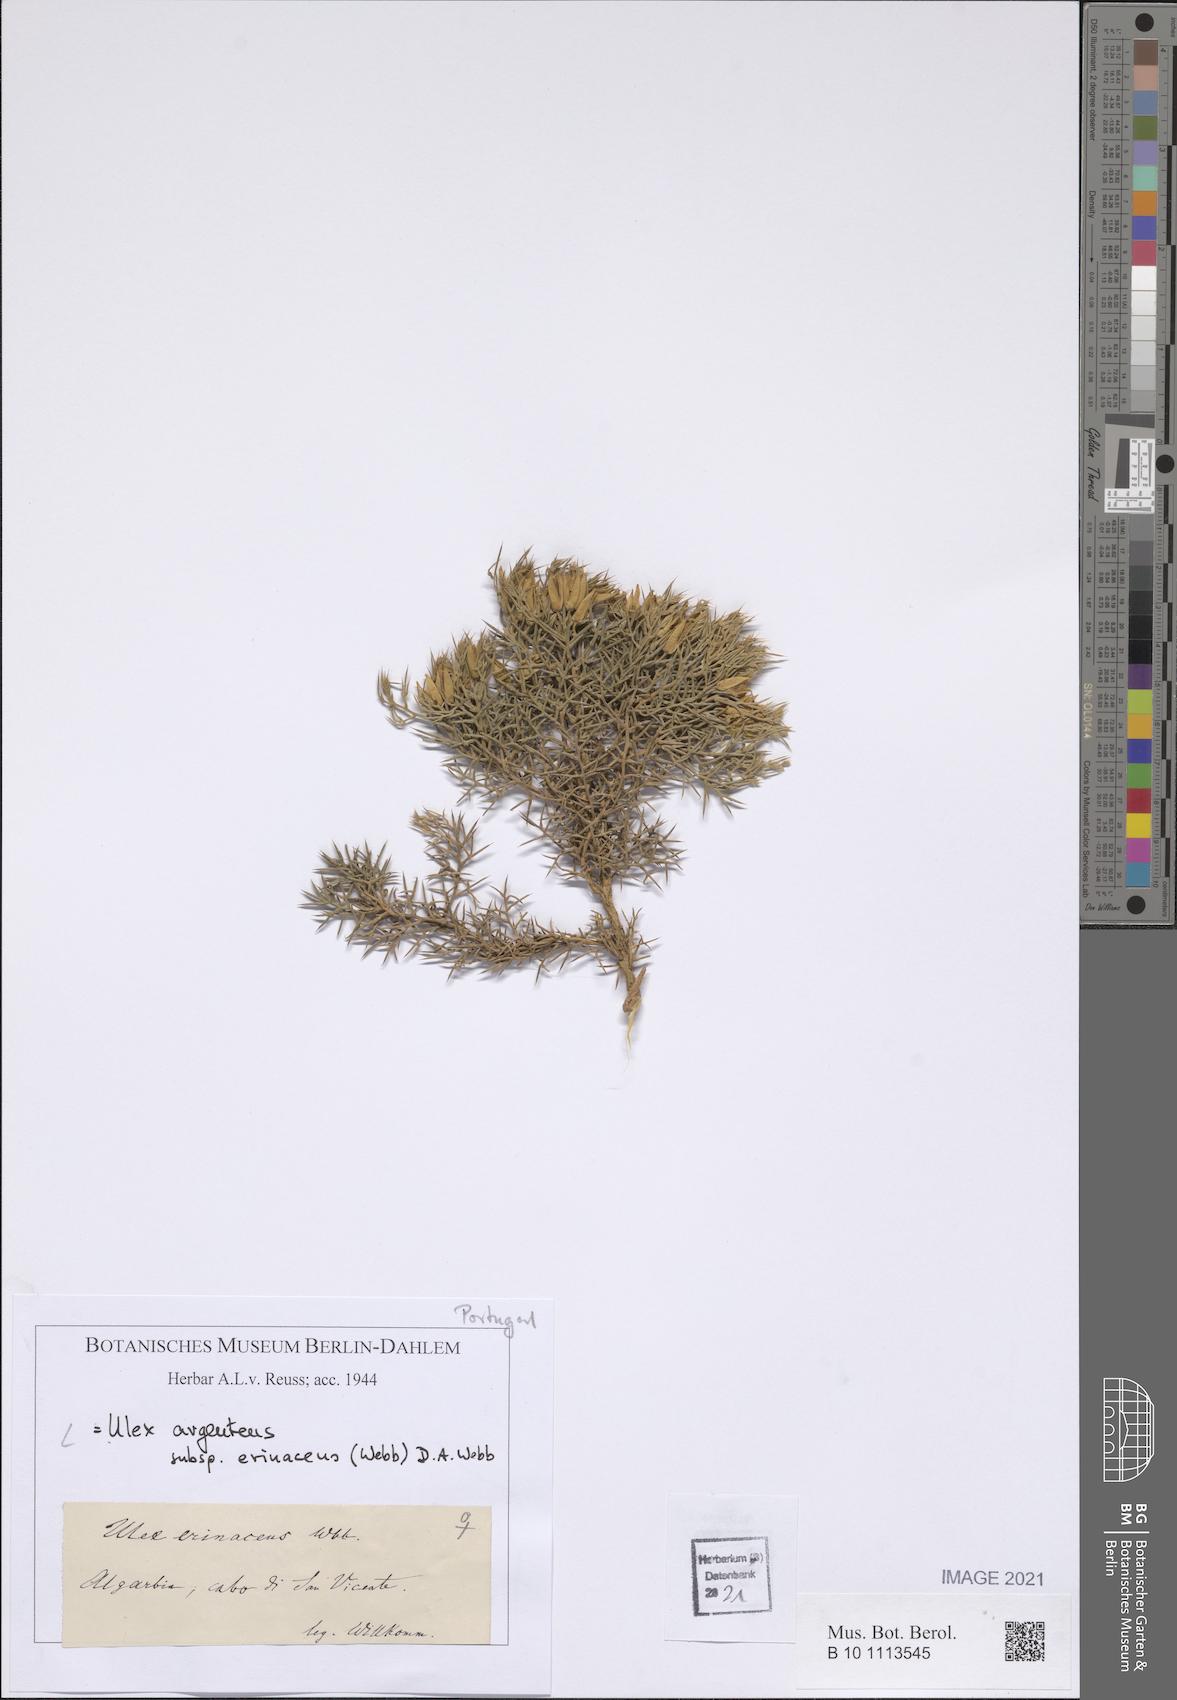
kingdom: Plantae
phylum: Tracheophyta
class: Magnoliopsida
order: Fabales
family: Fabaceae
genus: Ulex
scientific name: Ulex erinaceus
